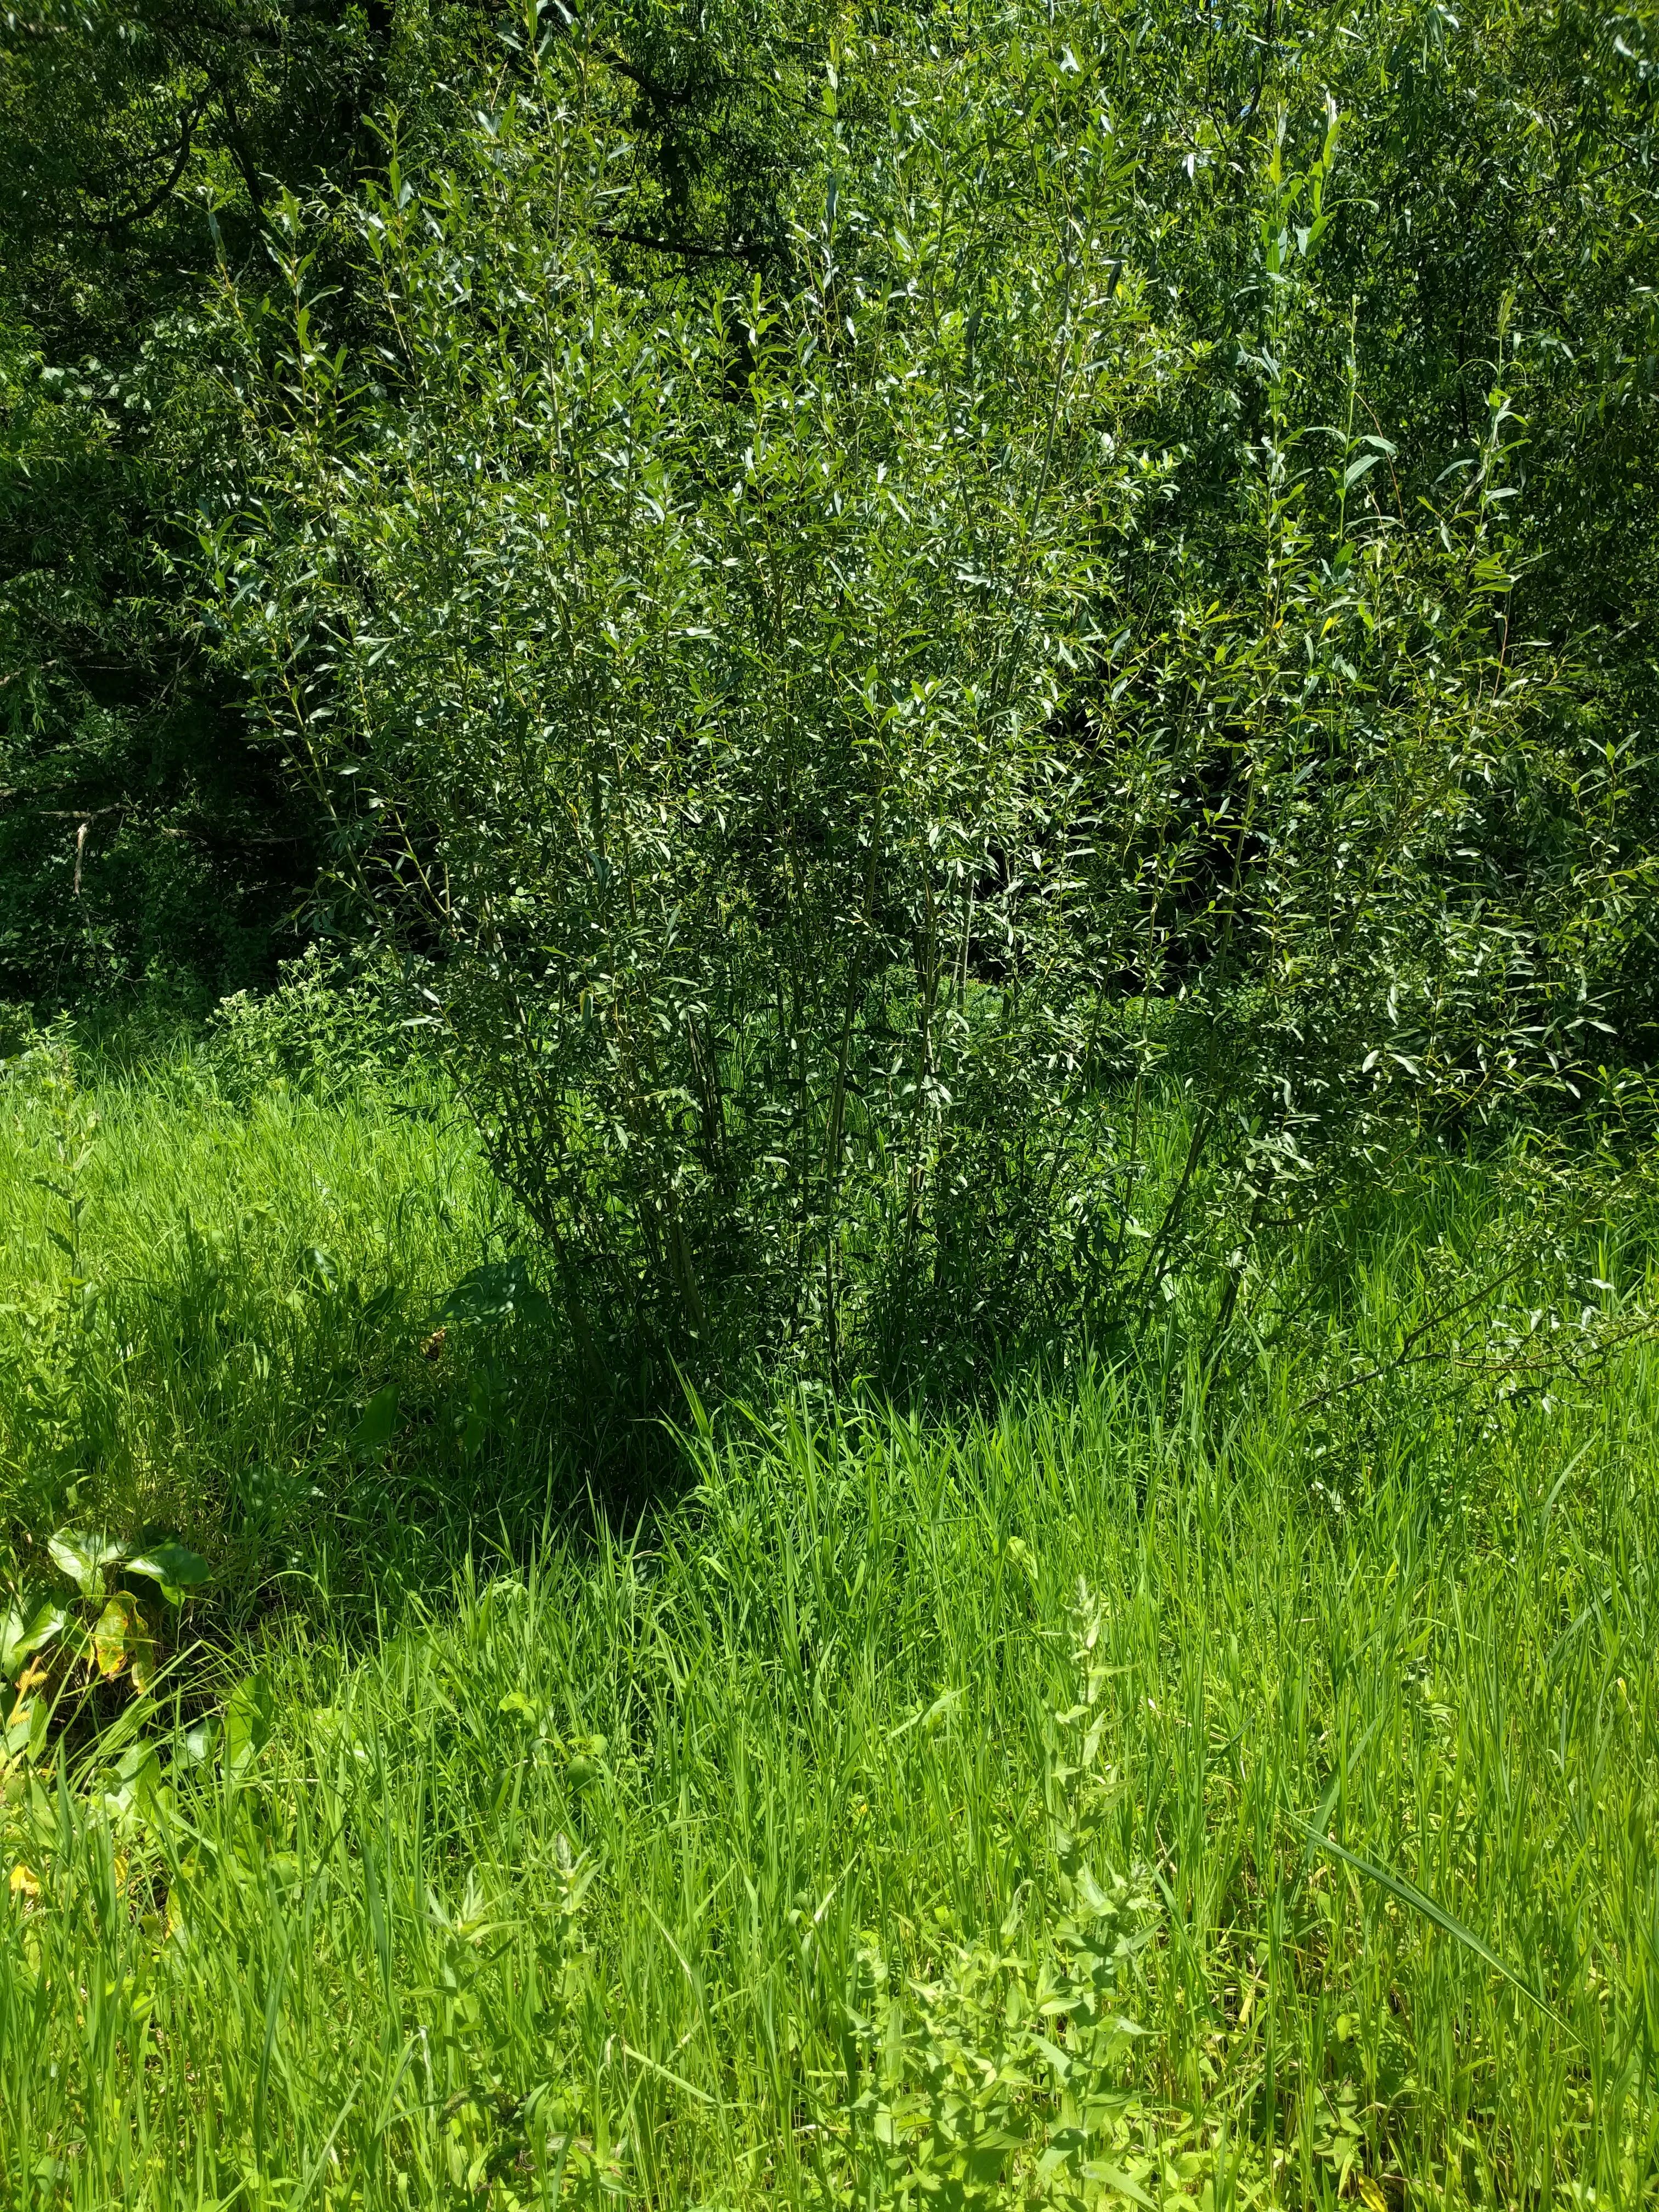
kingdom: Plantae
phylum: Tracheophyta
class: Magnoliopsida
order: Malpighiales
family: Salicaceae
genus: Salix
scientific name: Salix purpurea
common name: Purple willow
